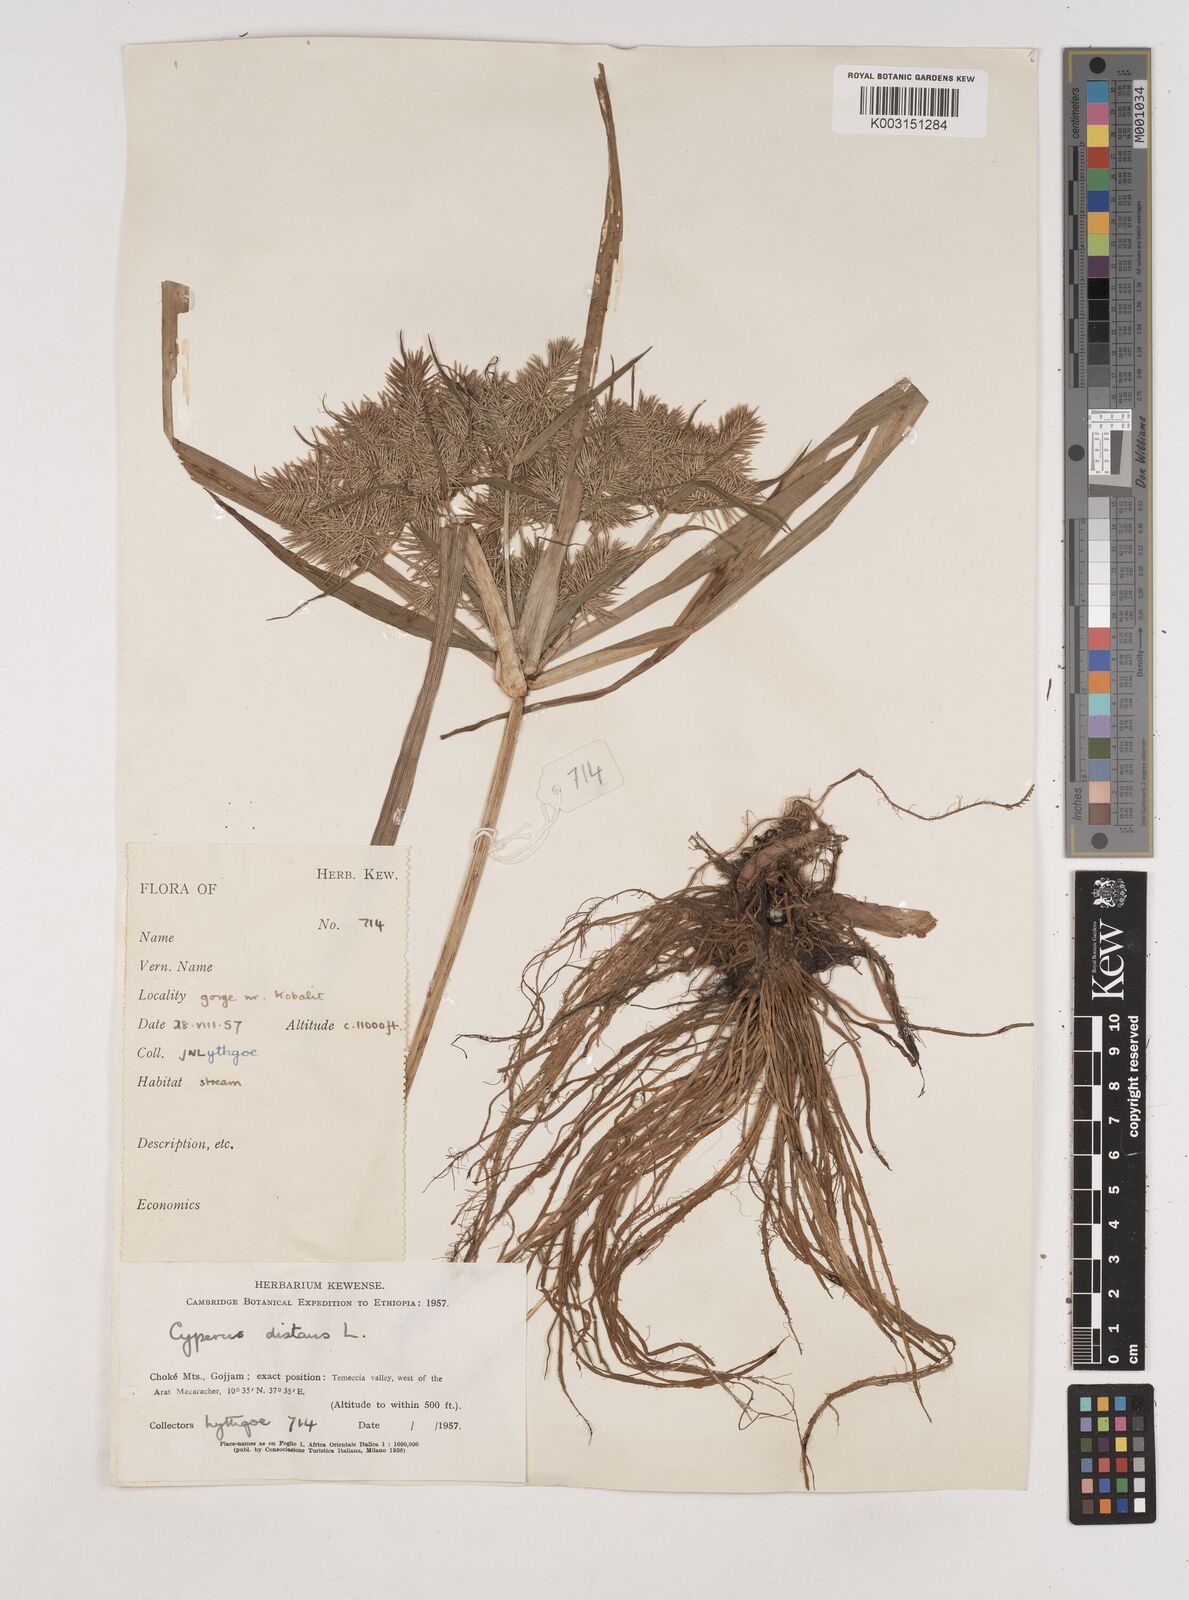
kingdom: Plantae
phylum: Tracheophyta
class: Liliopsida
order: Poales
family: Cyperaceae
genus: Cyperus
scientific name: Cyperus distans
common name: Slender cyperus
